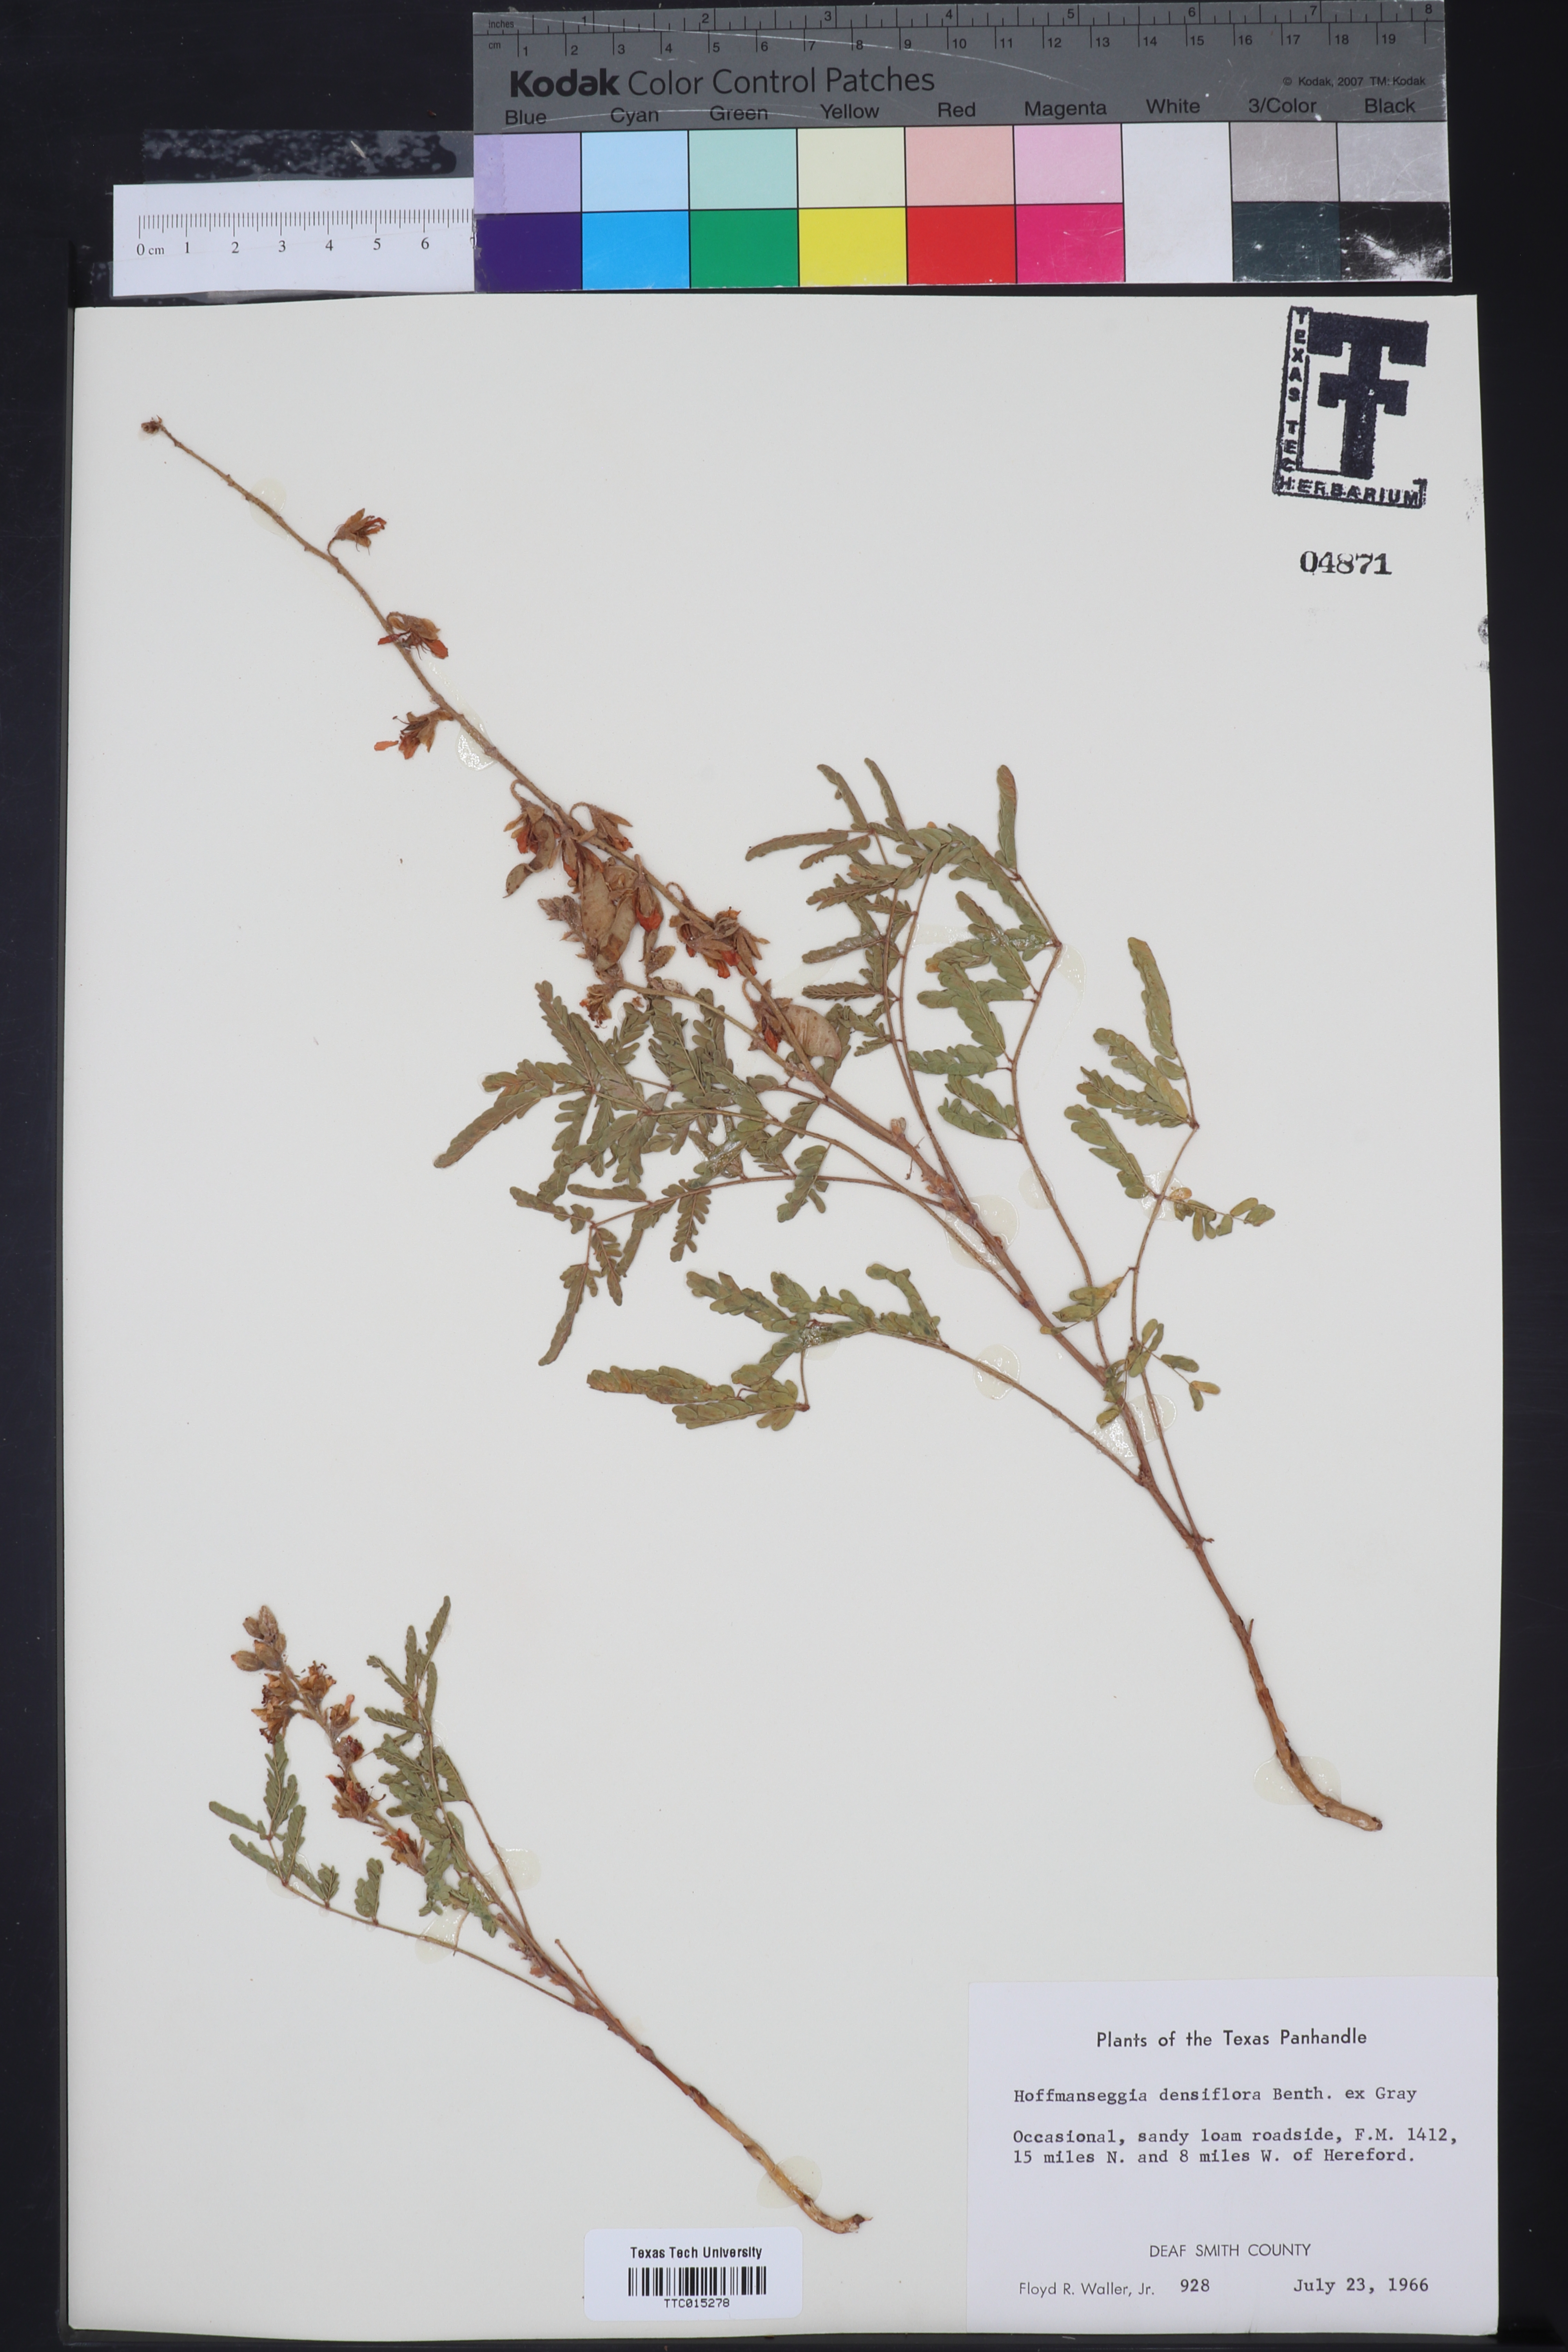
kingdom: Plantae
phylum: Tracheophyta
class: Magnoliopsida
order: Fabales
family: Fabaceae
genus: Hoffmannseggia
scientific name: Hoffmannseggia glauca
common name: Pignut
